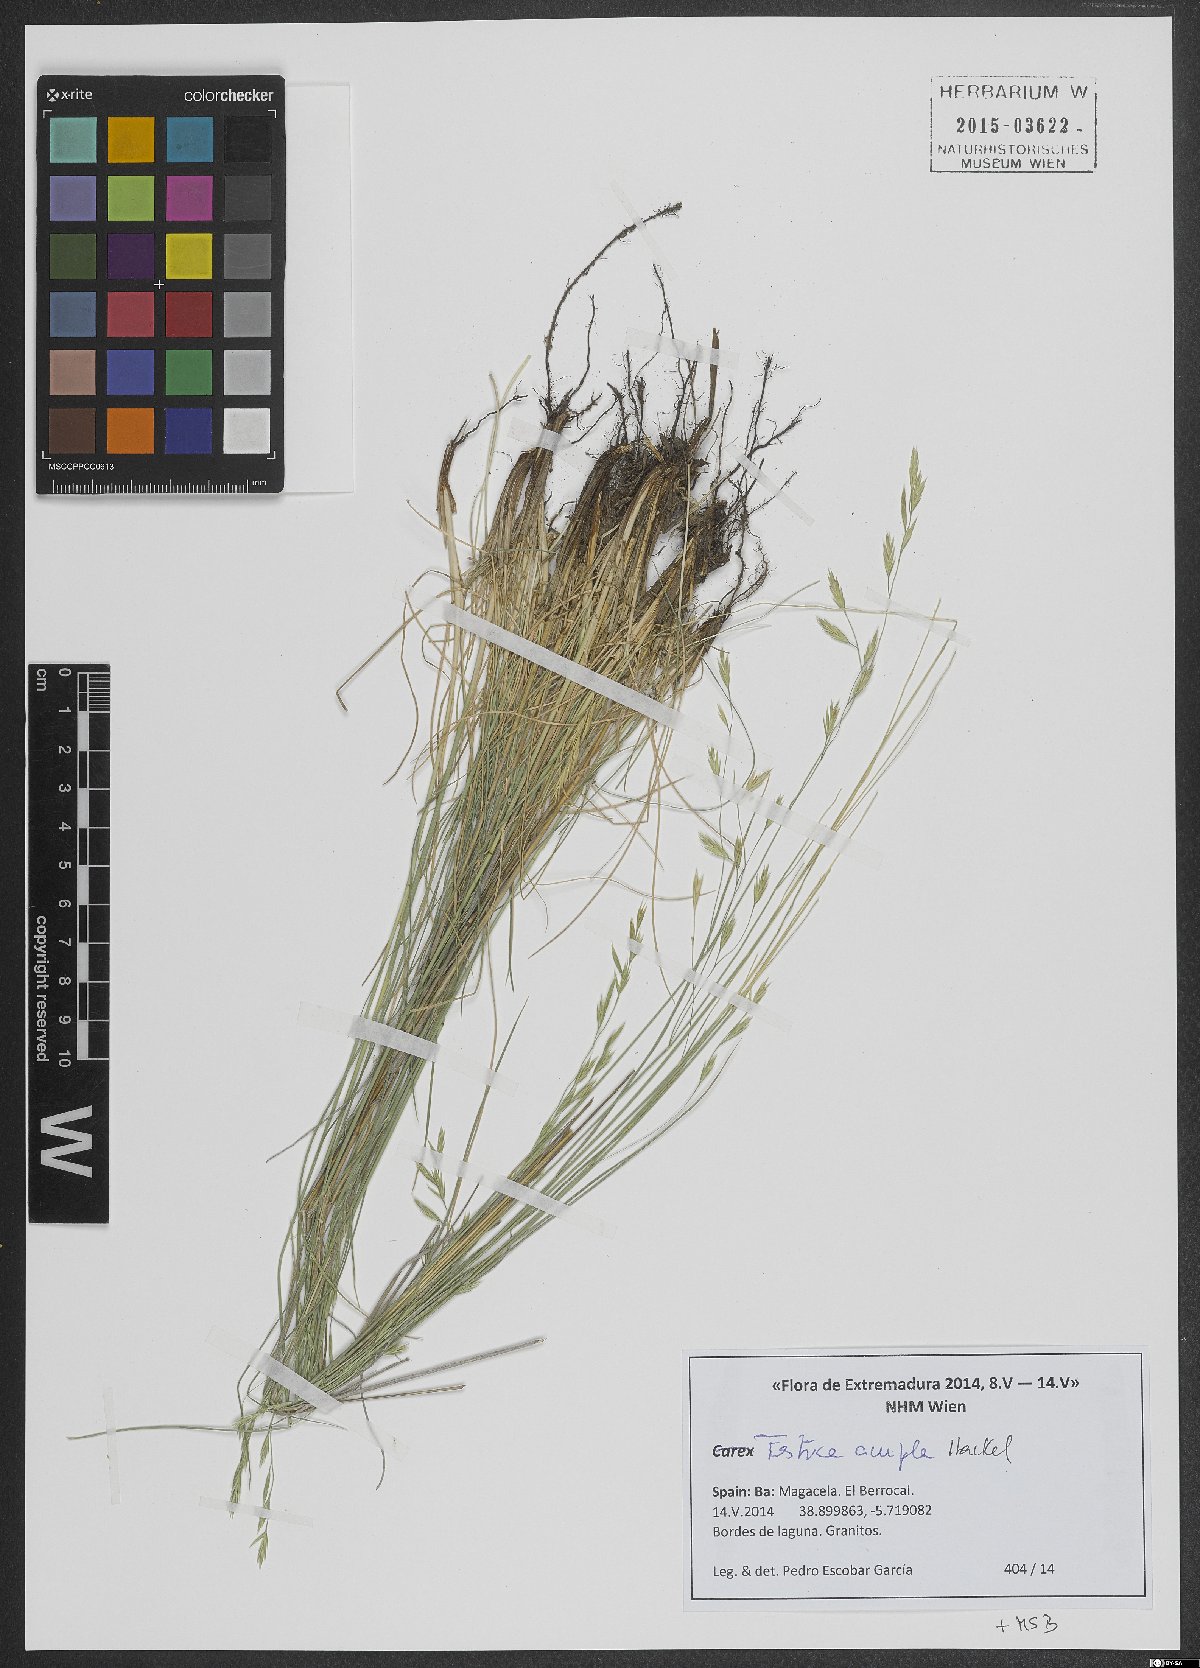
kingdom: Plantae
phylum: Tracheophyta
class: Liliopsida
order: Poales
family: Poaceae
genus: Festuca
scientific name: Festuca ampla
